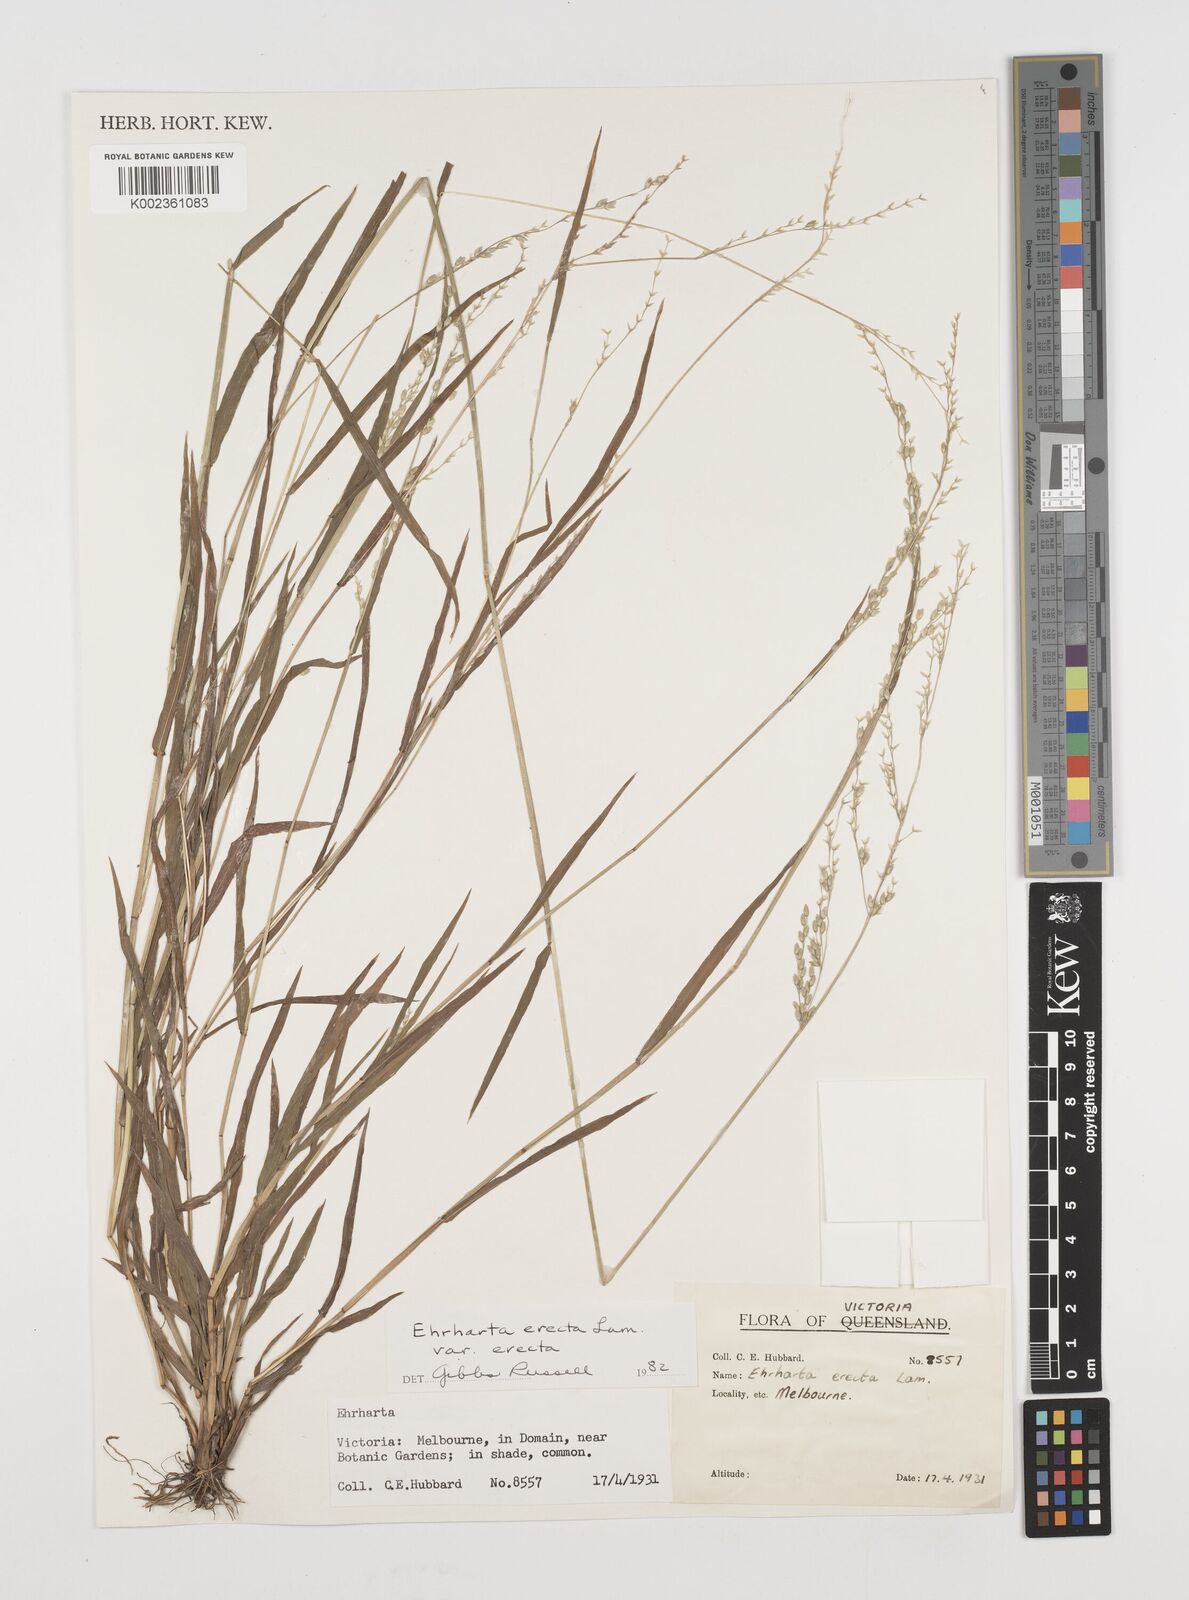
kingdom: Plantae
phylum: Tracheophyta
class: Liliopsida
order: Poales
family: Poaceae
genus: Ehrharta
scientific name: Ehrharta erecta
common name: Panic veldtgrass
